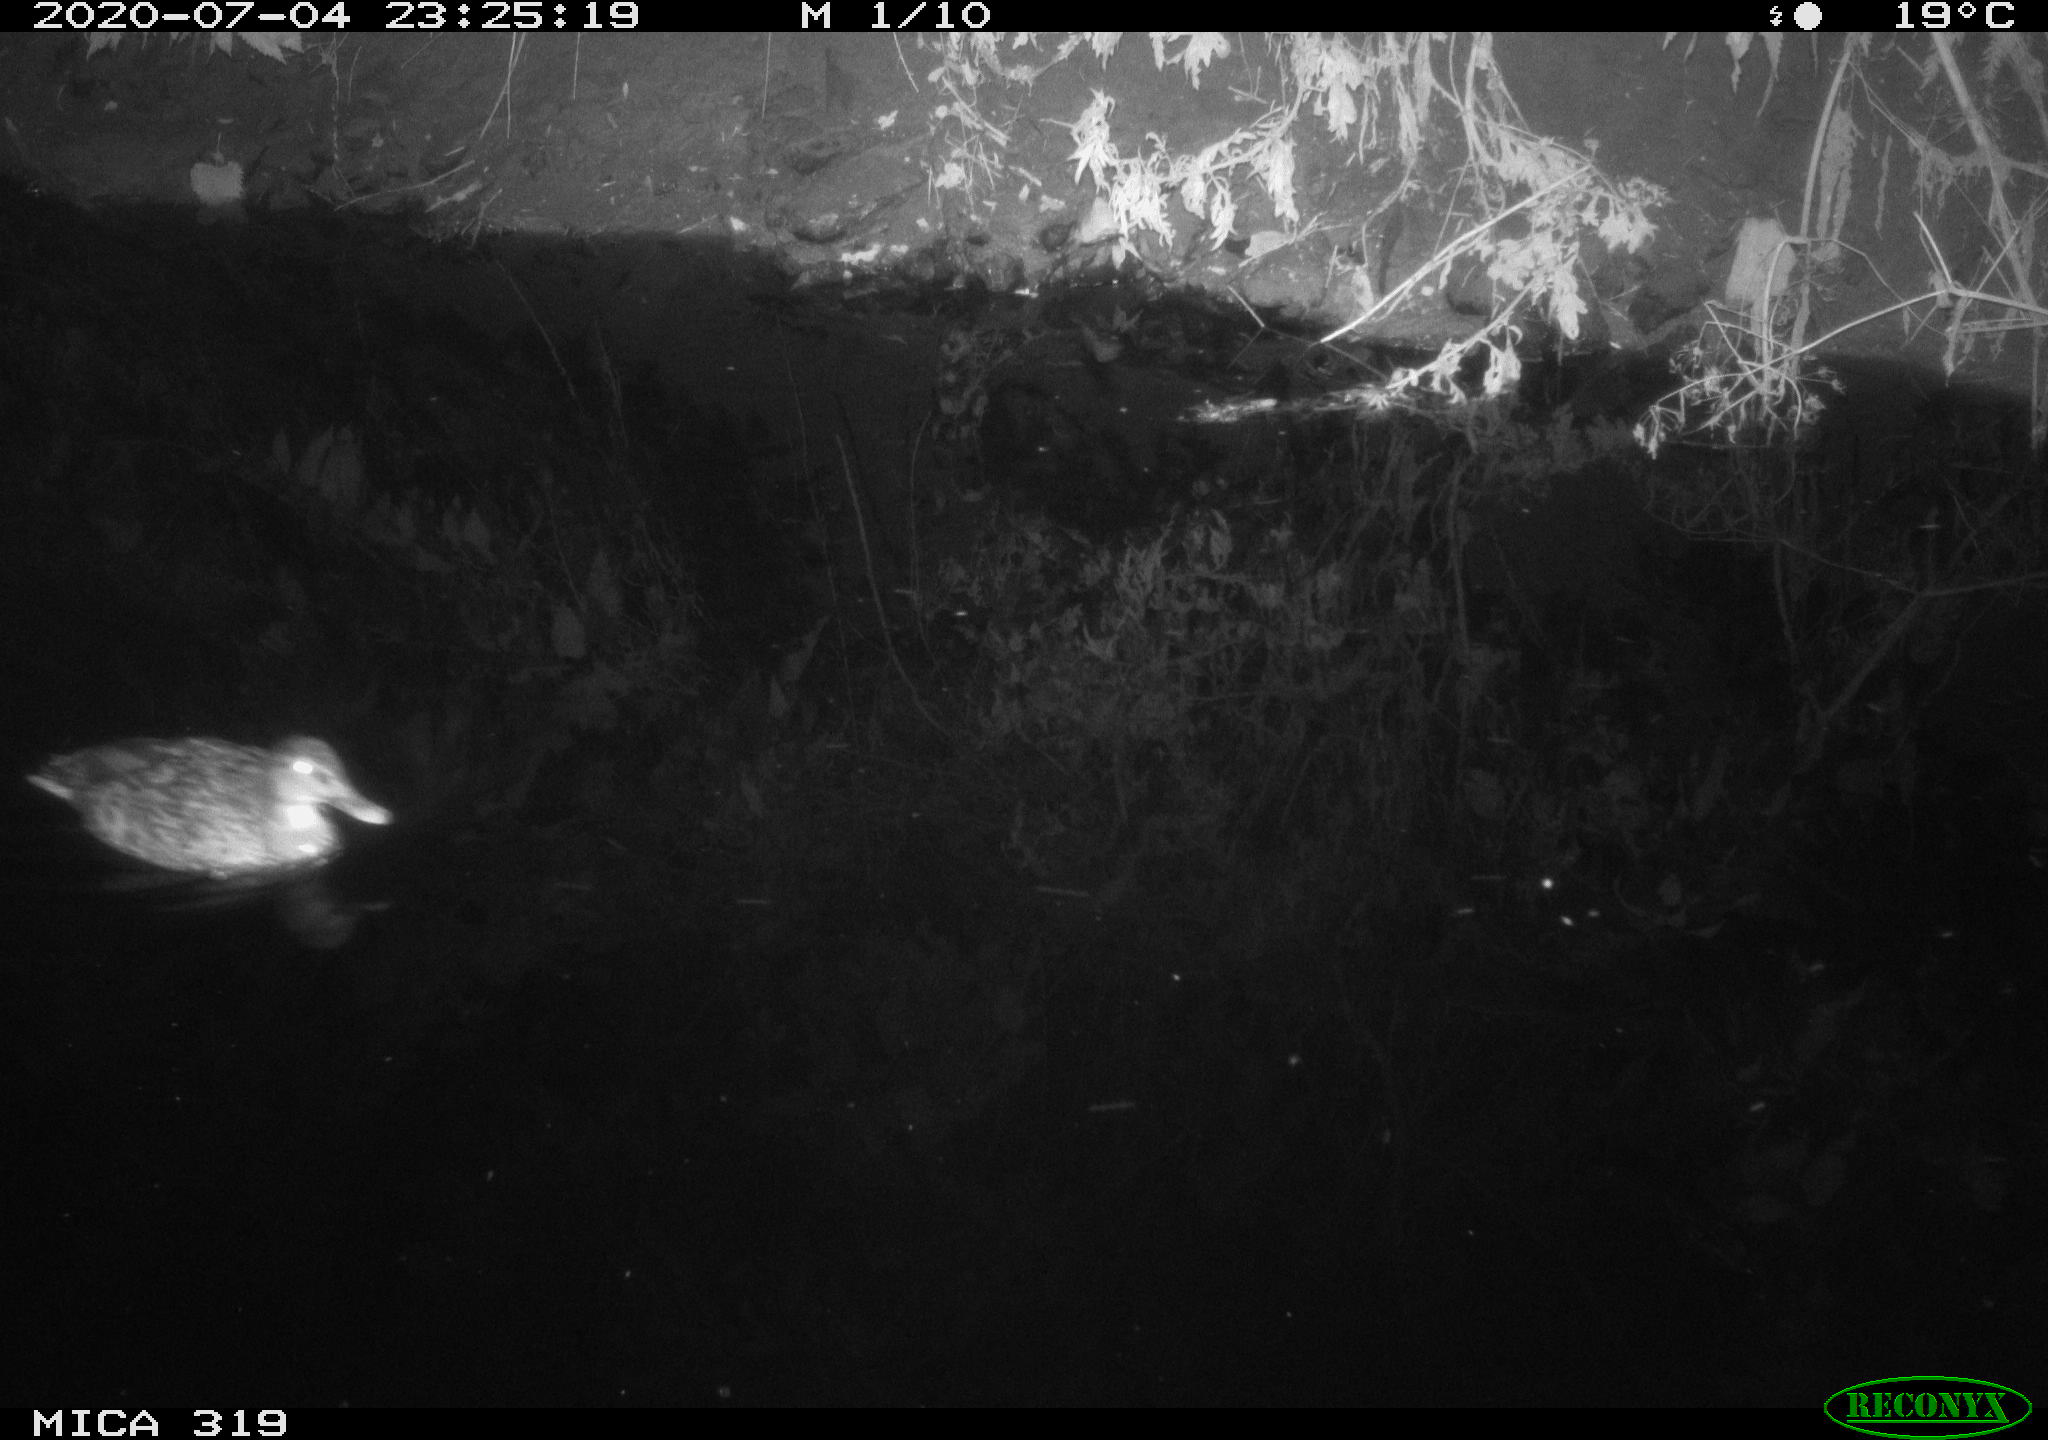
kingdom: Animalia
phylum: Chordata
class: Aves
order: Anseriformes
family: Anatidae
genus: Anas
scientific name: Anas platyrhynchos
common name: Mallard
